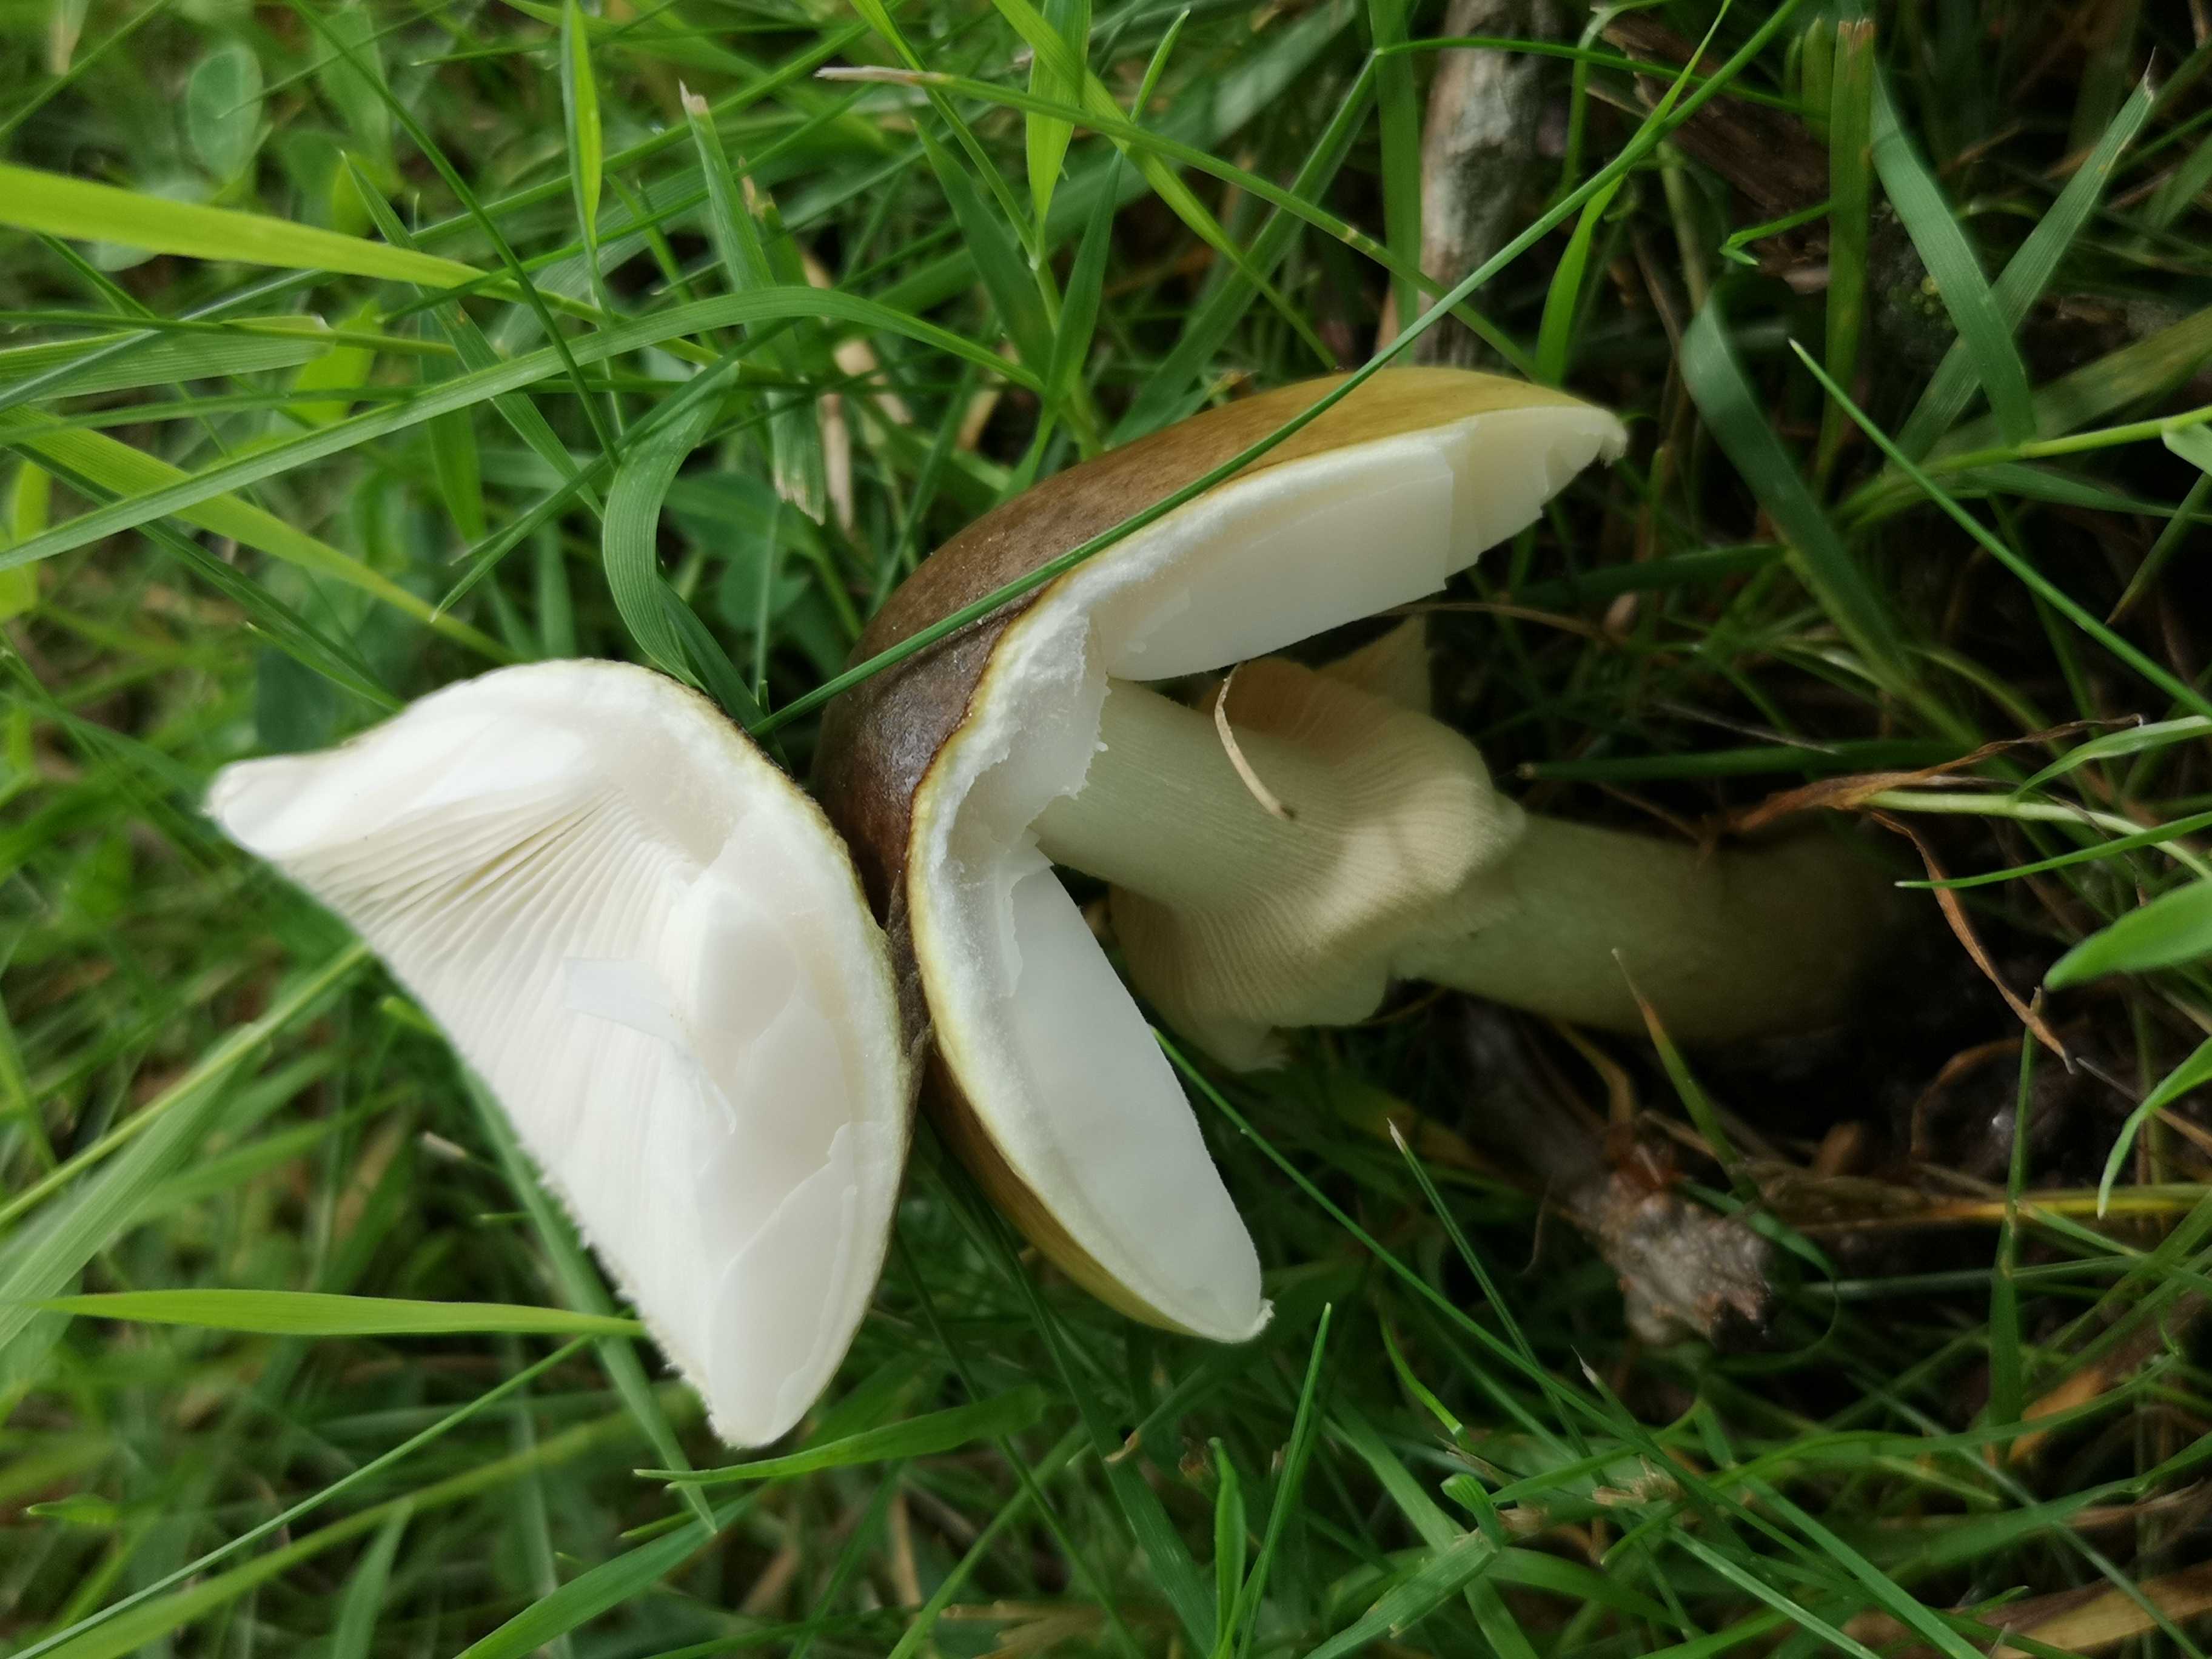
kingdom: Fungi
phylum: Basidiomycota
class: Agaricomycetes
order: Agaricales
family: Amanitaceae
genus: Amanita
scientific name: Amanita phalloides
